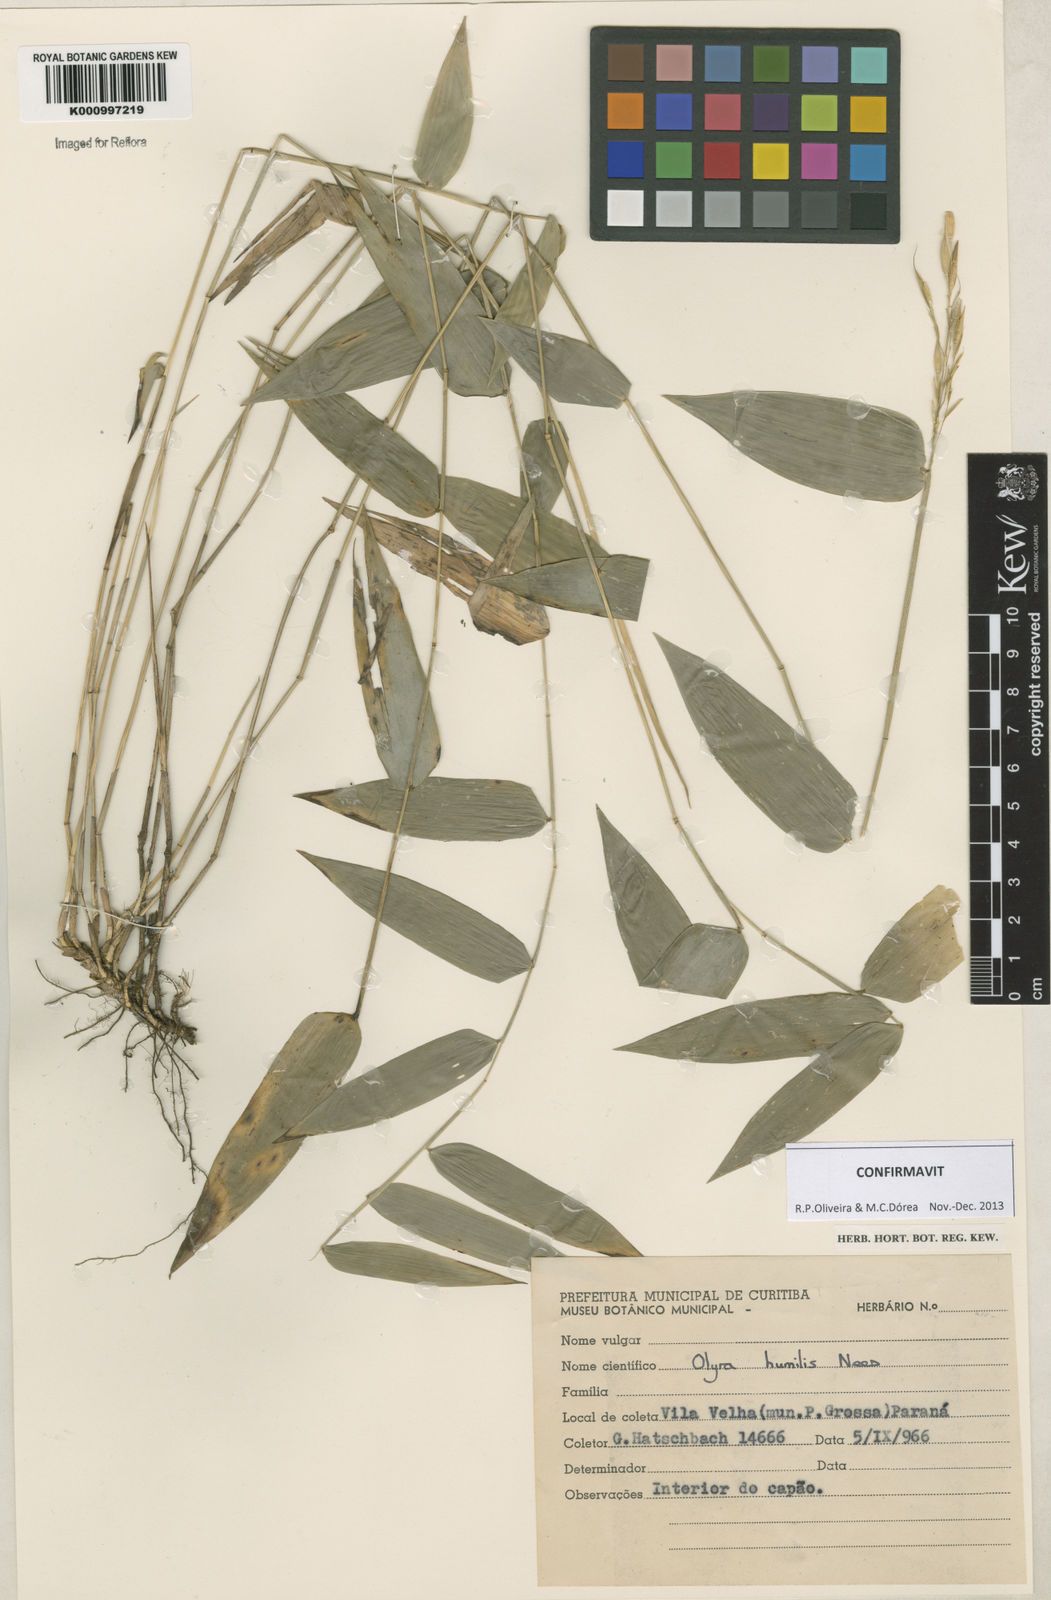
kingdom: Plantae
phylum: Tracheophyta
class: Liliopsida
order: Poales
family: Poaceae
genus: Olyra
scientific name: Olyra humilis
